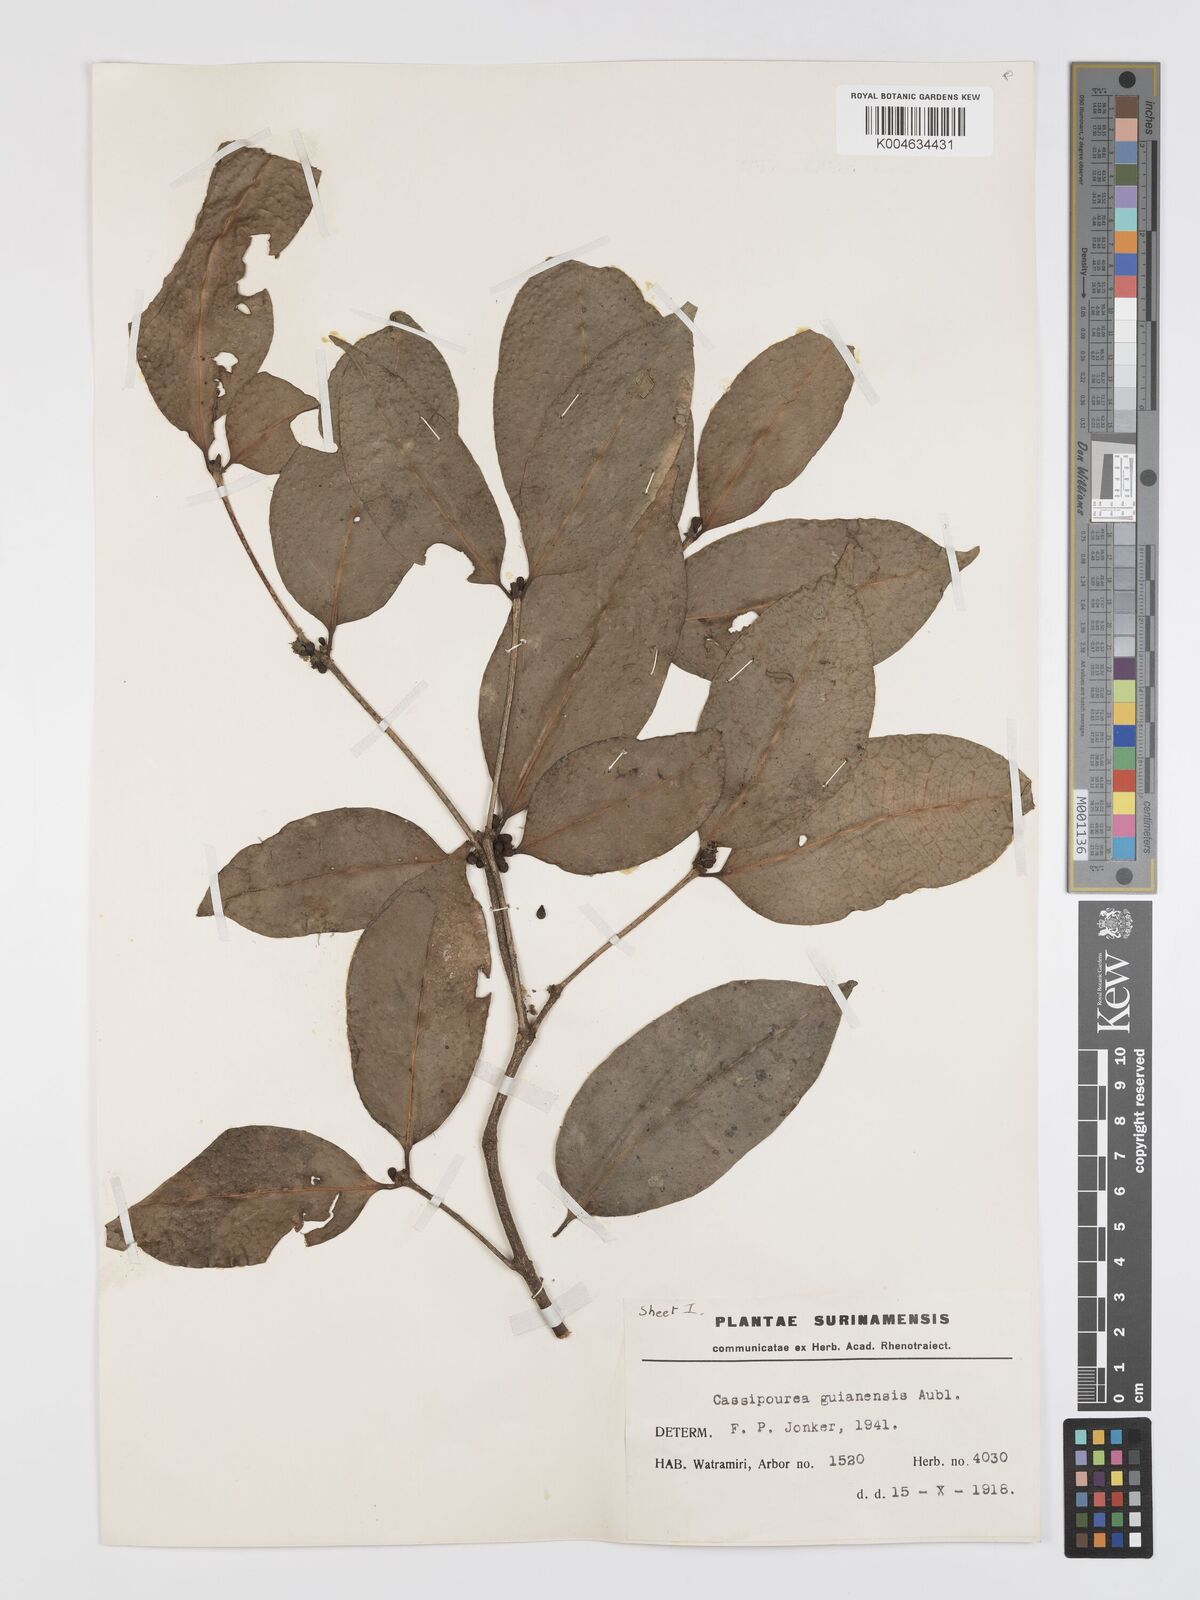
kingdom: Plantae
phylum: Tracheophyta
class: Magnoliopsida
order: Malpighiales
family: Rhizophoraceae
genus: Cassipourea
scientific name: Cassipourea guianensis
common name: Bastard waterwood
